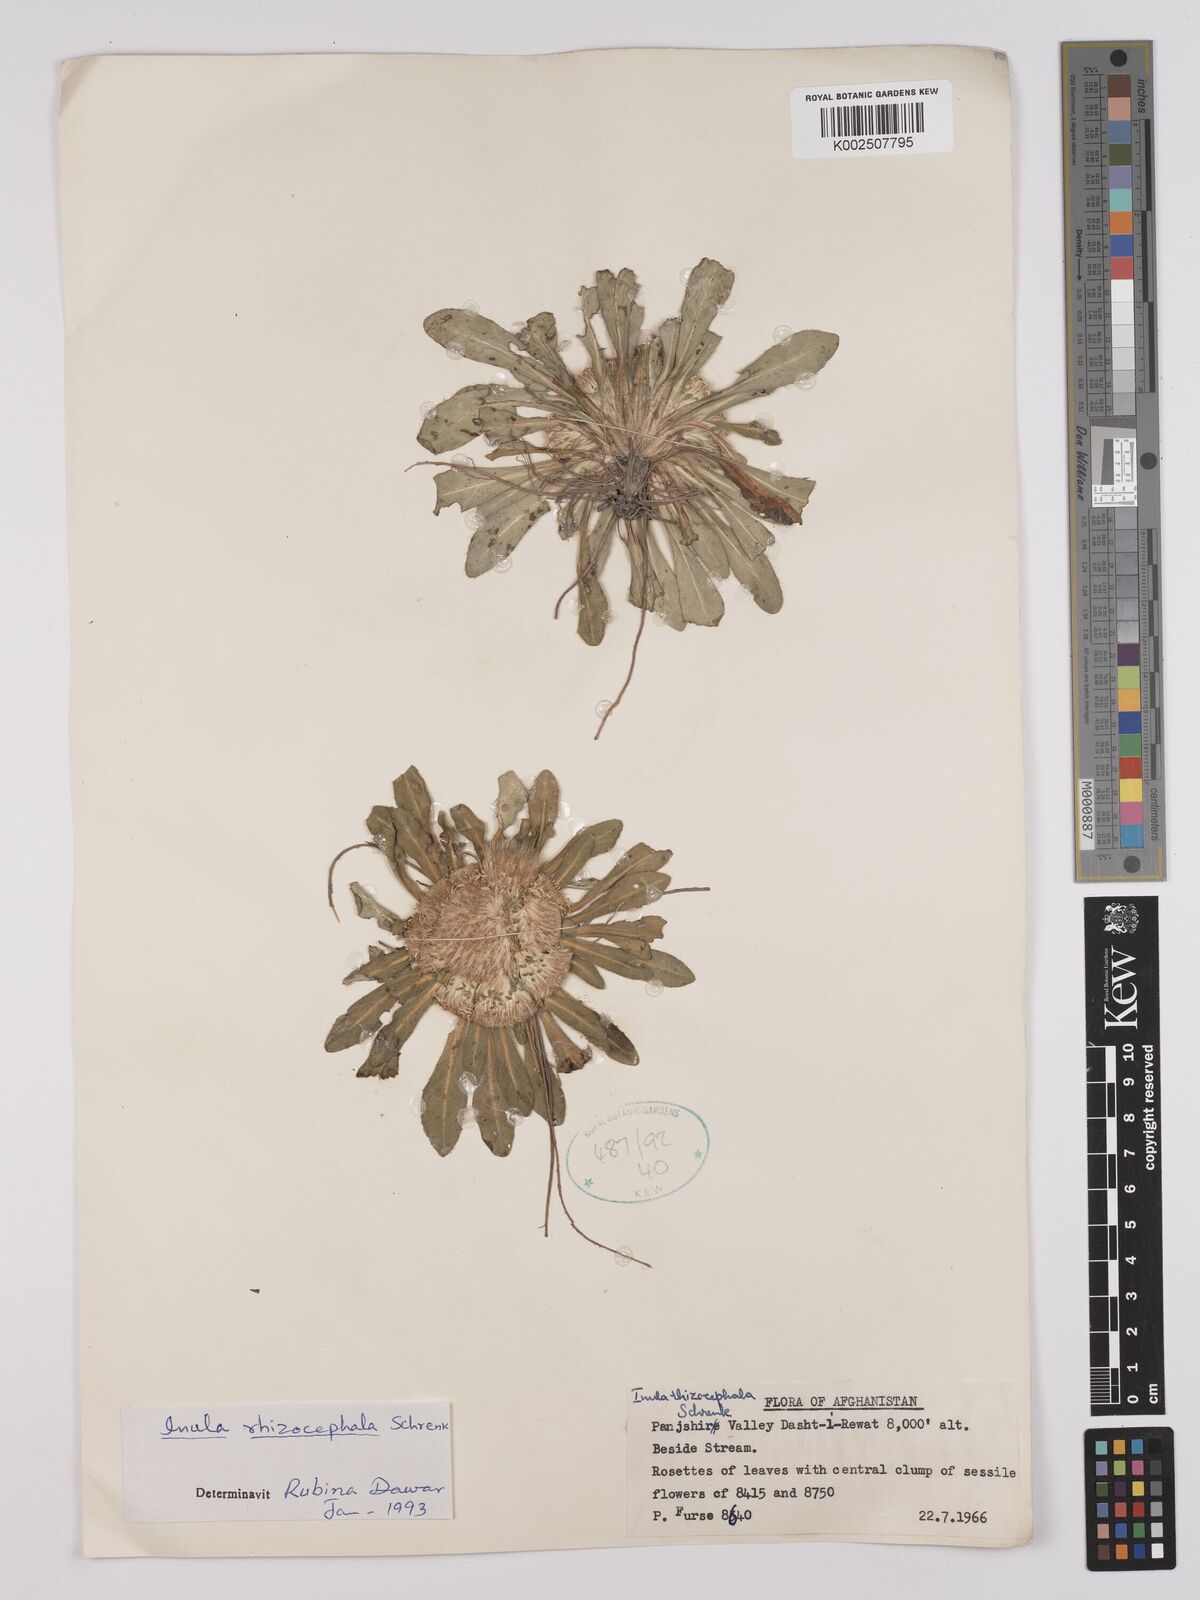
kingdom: Plantae
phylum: Tracheophyta
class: Magnoliopsida
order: Asterales
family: Asteraceae
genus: Inula
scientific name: Inula rhizocephala
